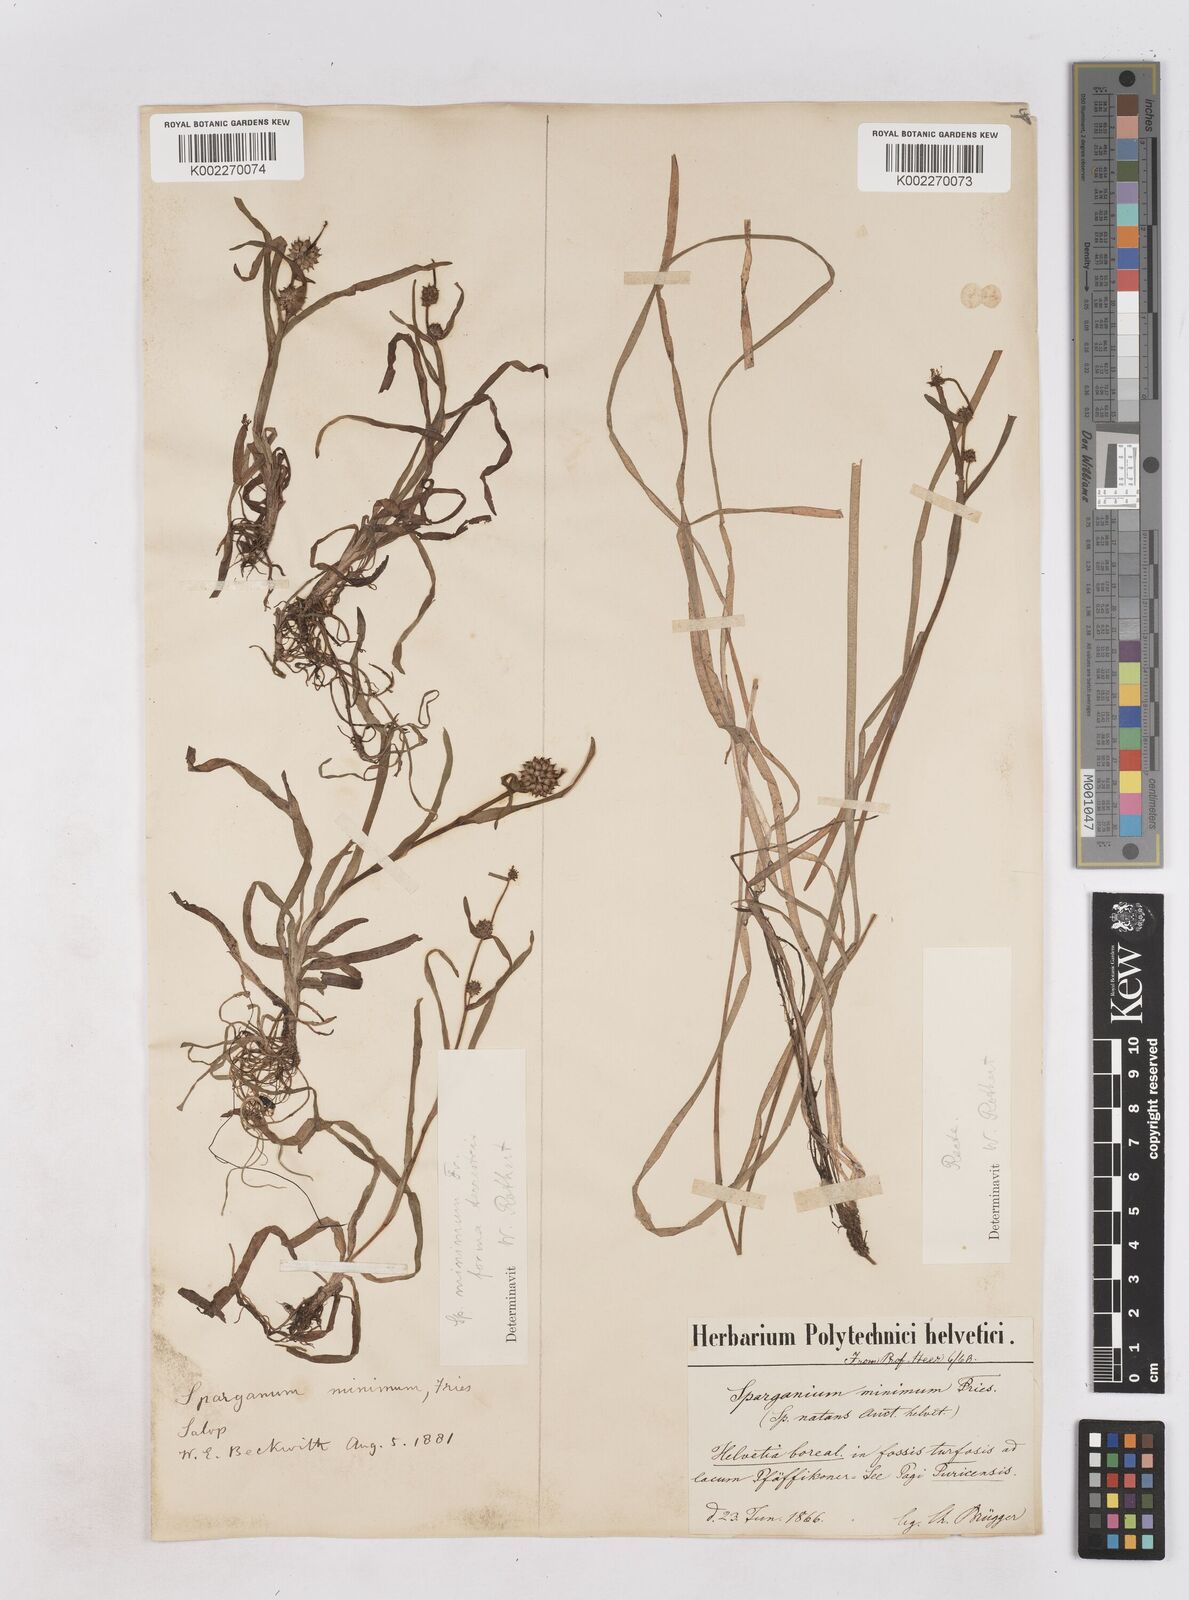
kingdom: Plantae
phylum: Tracheophyta
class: Liliopsida
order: Poales
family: Typhaceae
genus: Sparganium
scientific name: Sparganium natans
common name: Least bur-reed
